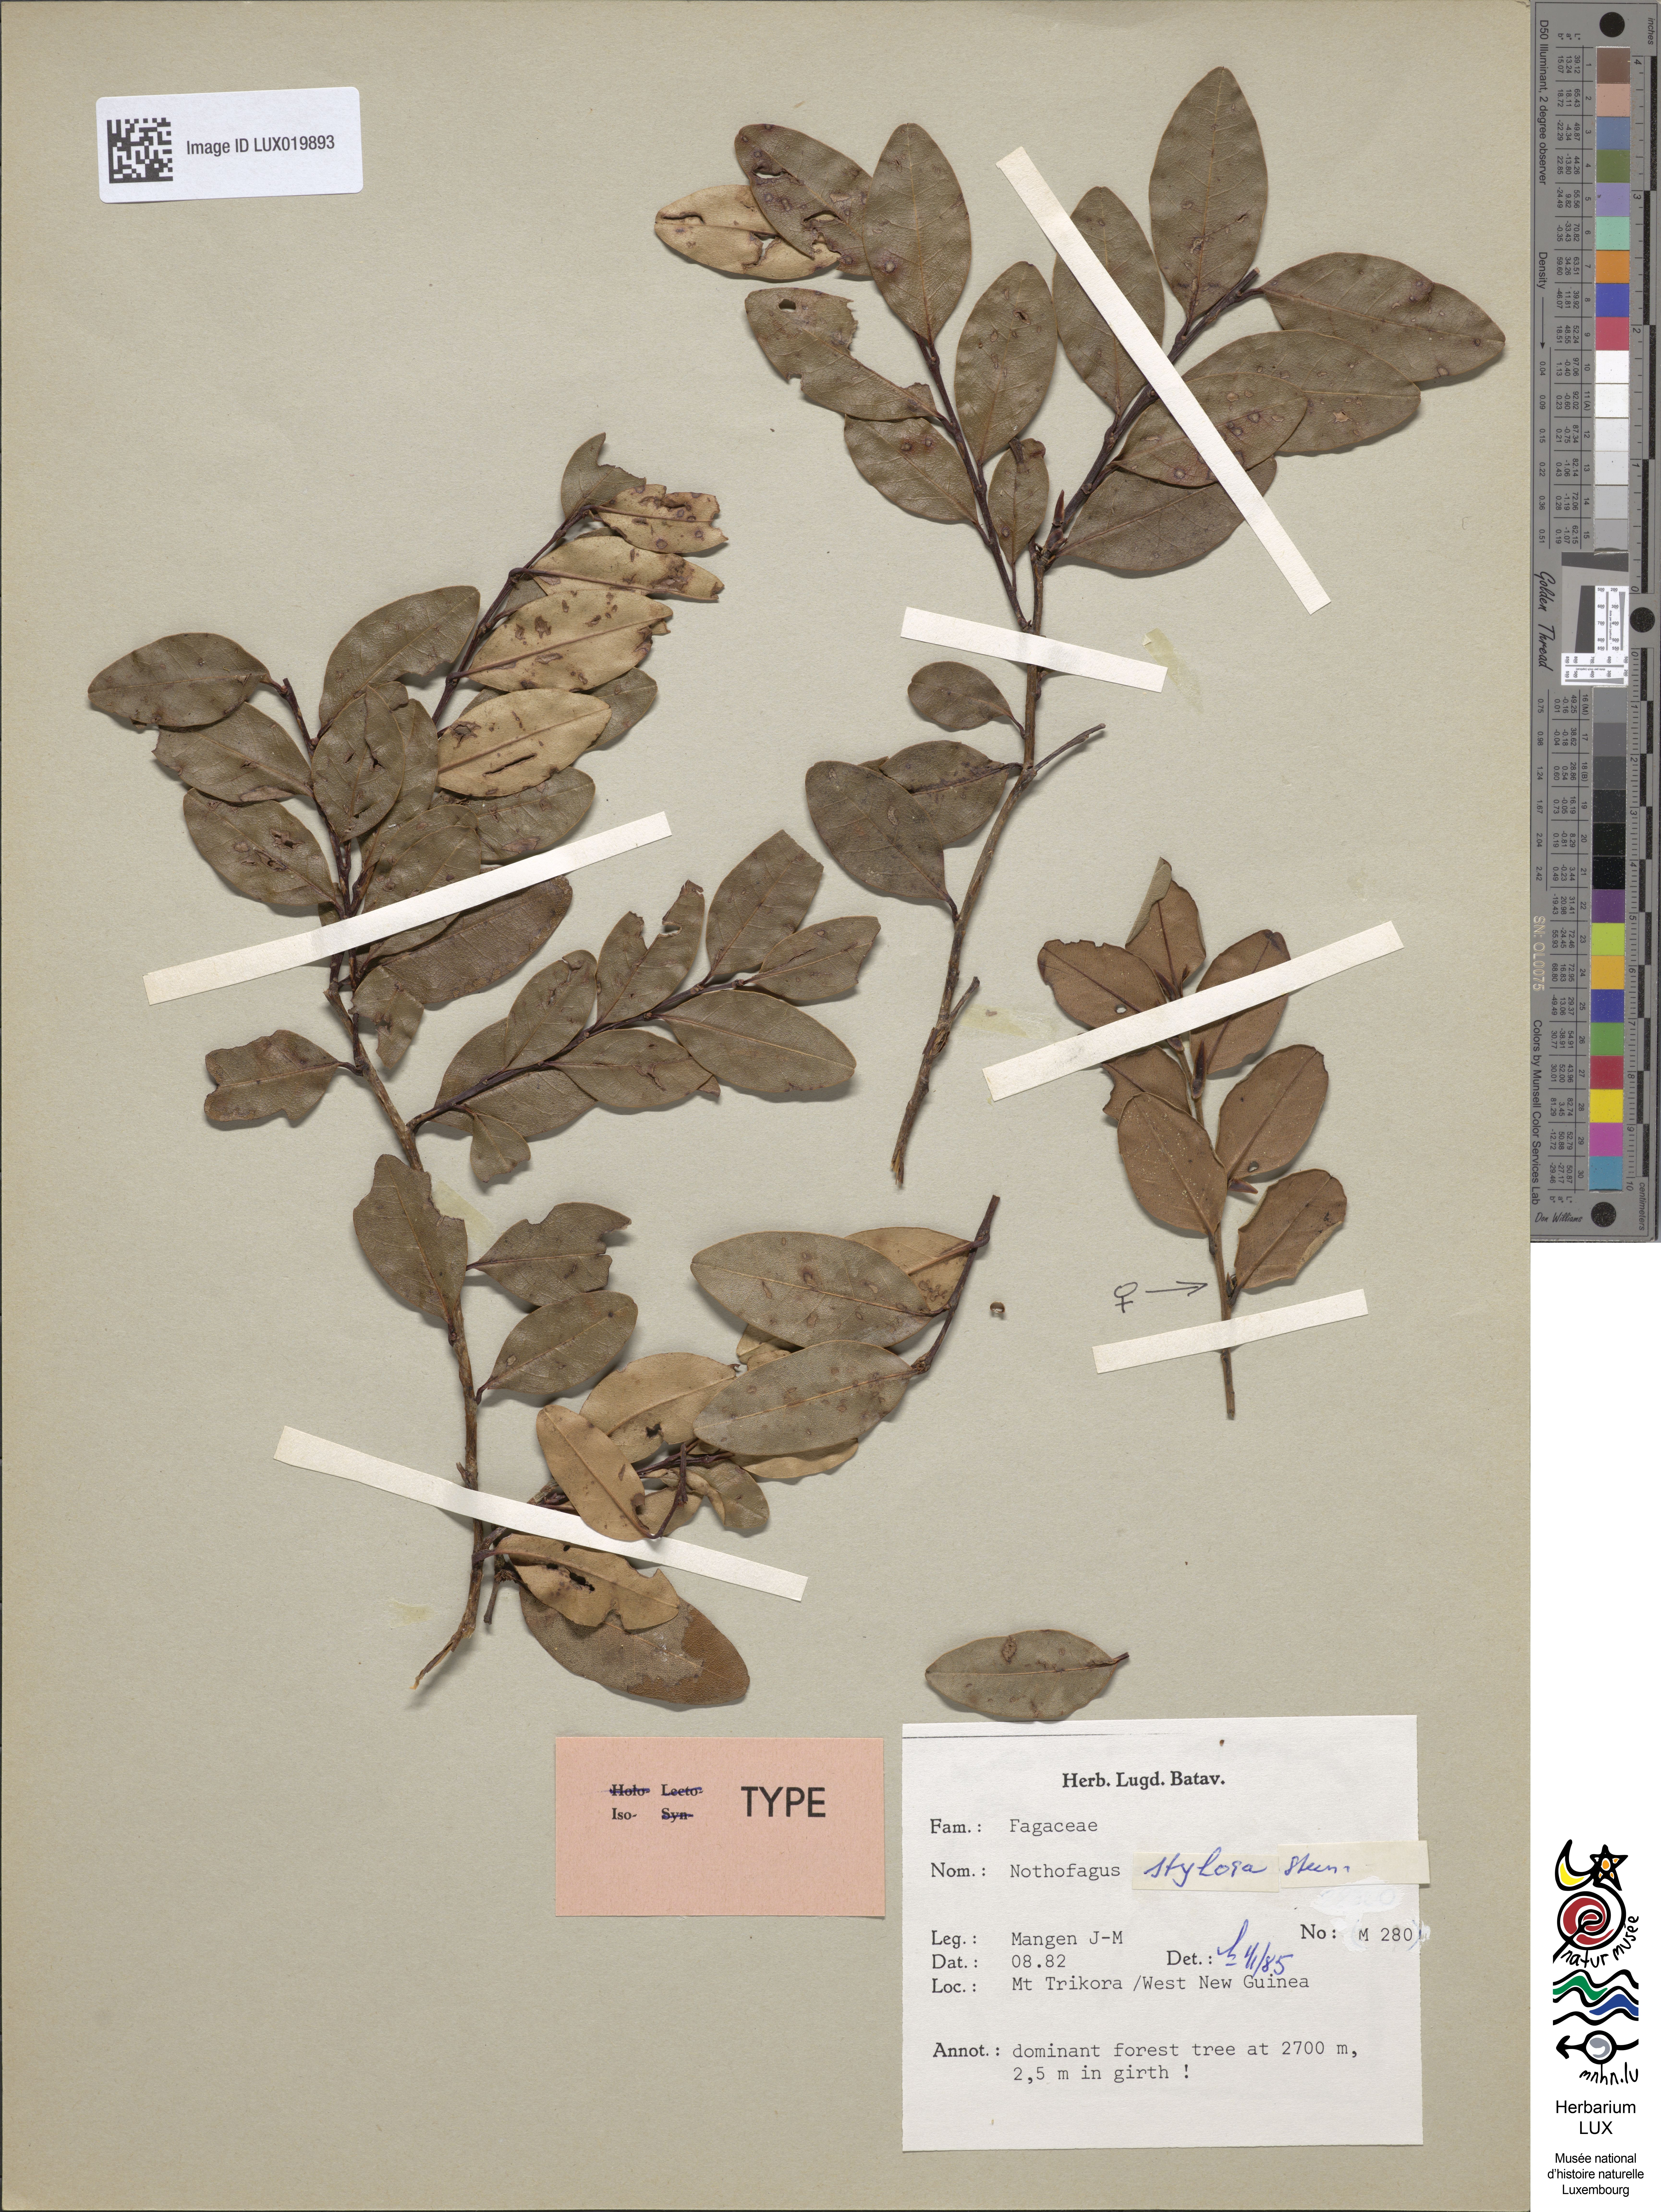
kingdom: Plantae
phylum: Tracheophyta
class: Magnoliopsida
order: Fagales
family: Nothofagaceae
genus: Nothofagus
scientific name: Nothofagus stylosa
